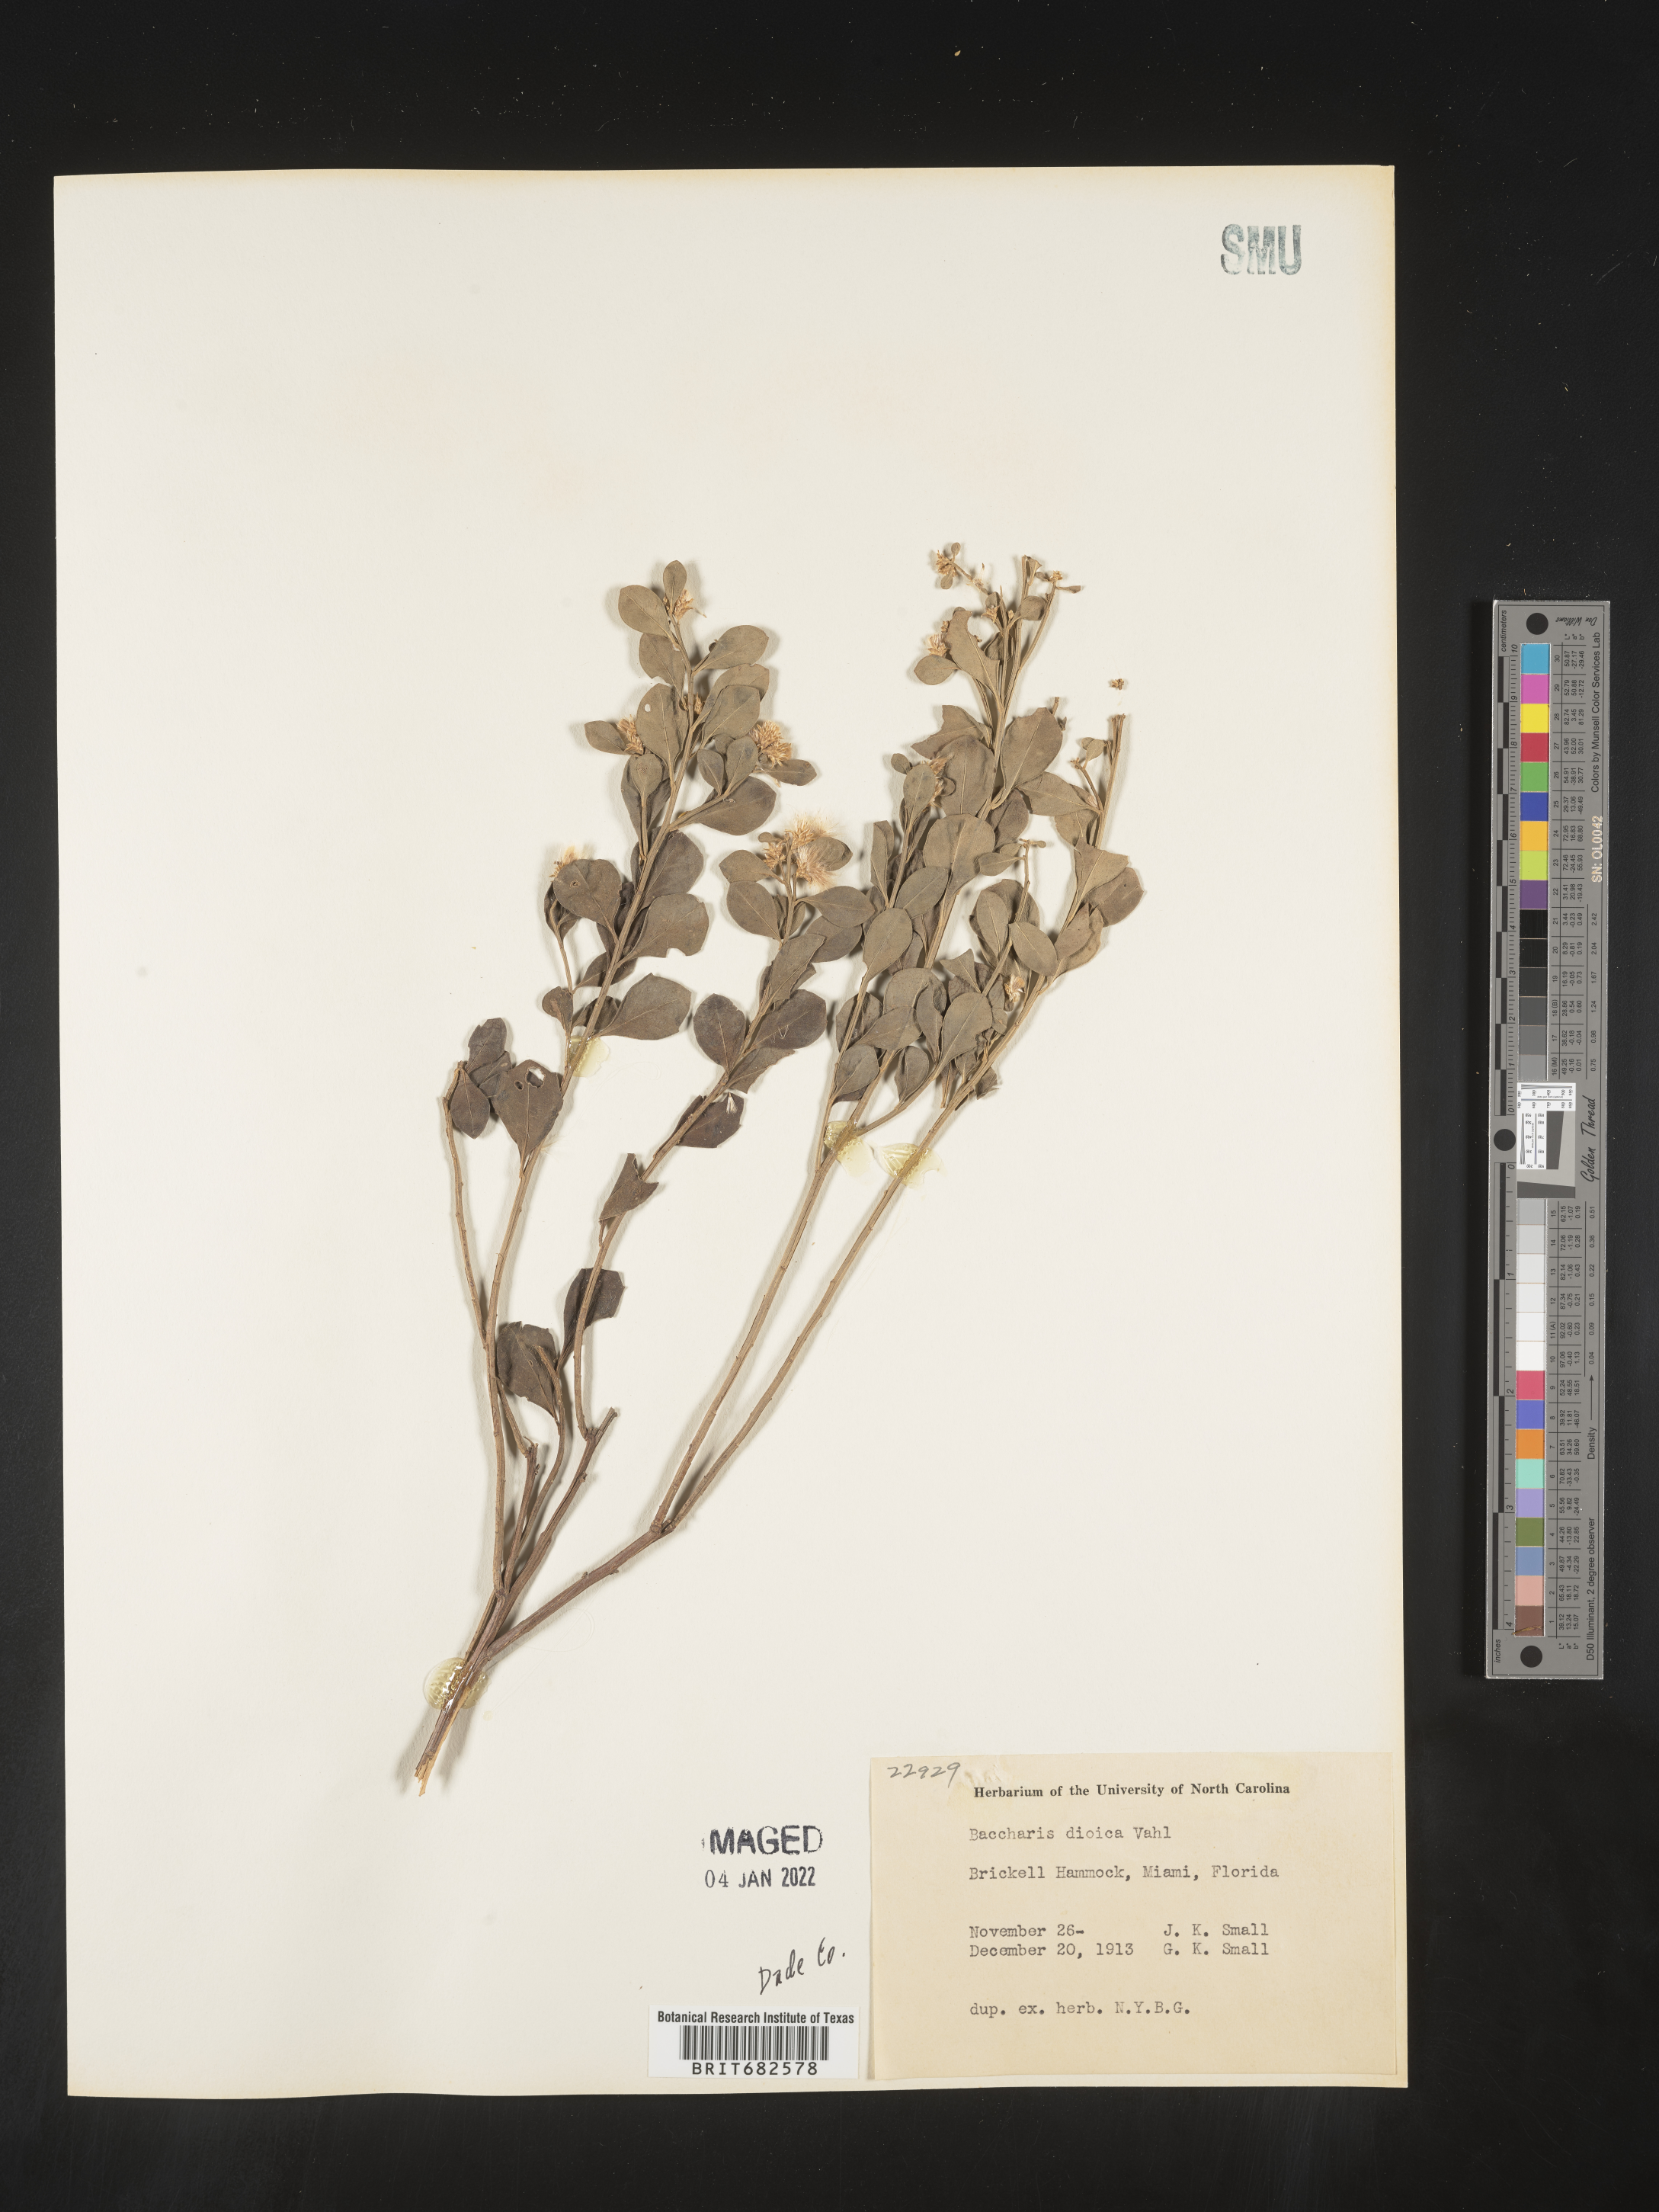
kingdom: Plantae
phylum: Tracheophyta
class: Magnoliopsida
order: Asterales
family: Asteraceae
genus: Baccharis
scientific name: Baccharis dioica
